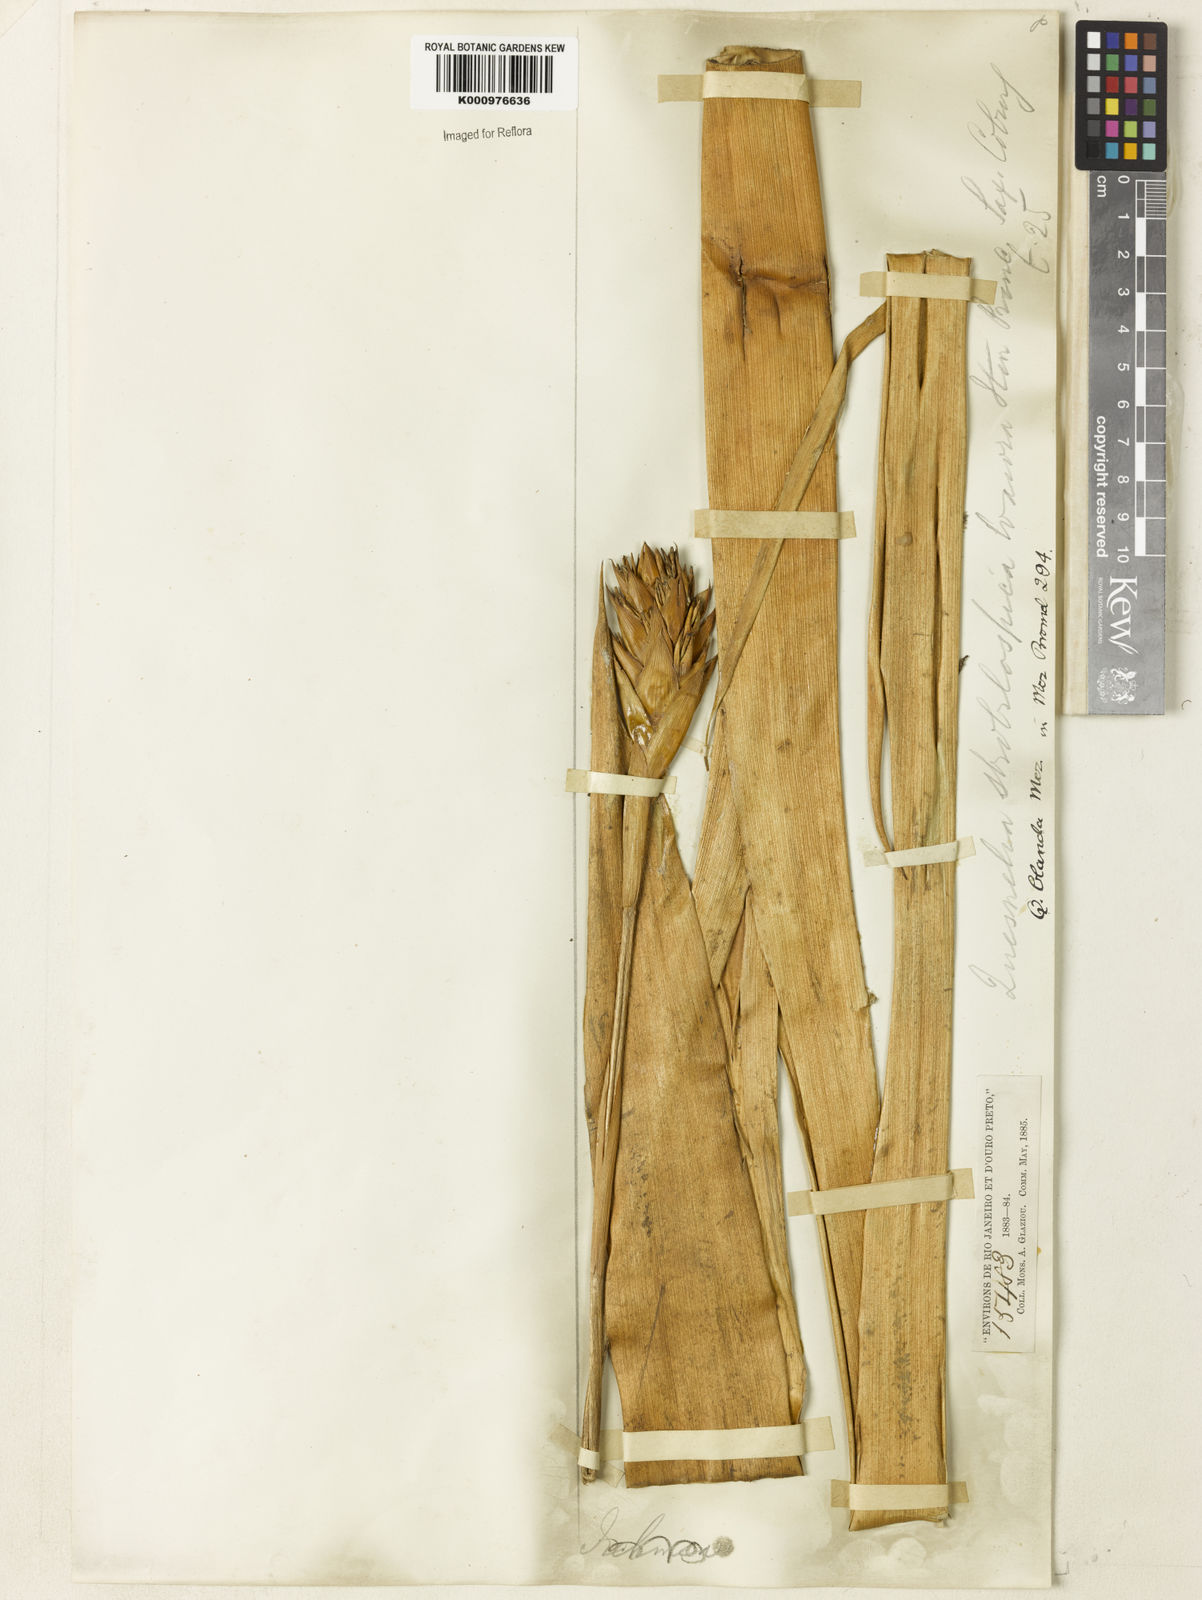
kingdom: Plantae
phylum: Tracheophyta
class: Liliopsida
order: Poales
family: Bromeliaceae
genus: Quesnelia
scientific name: Quesnelia blanda
